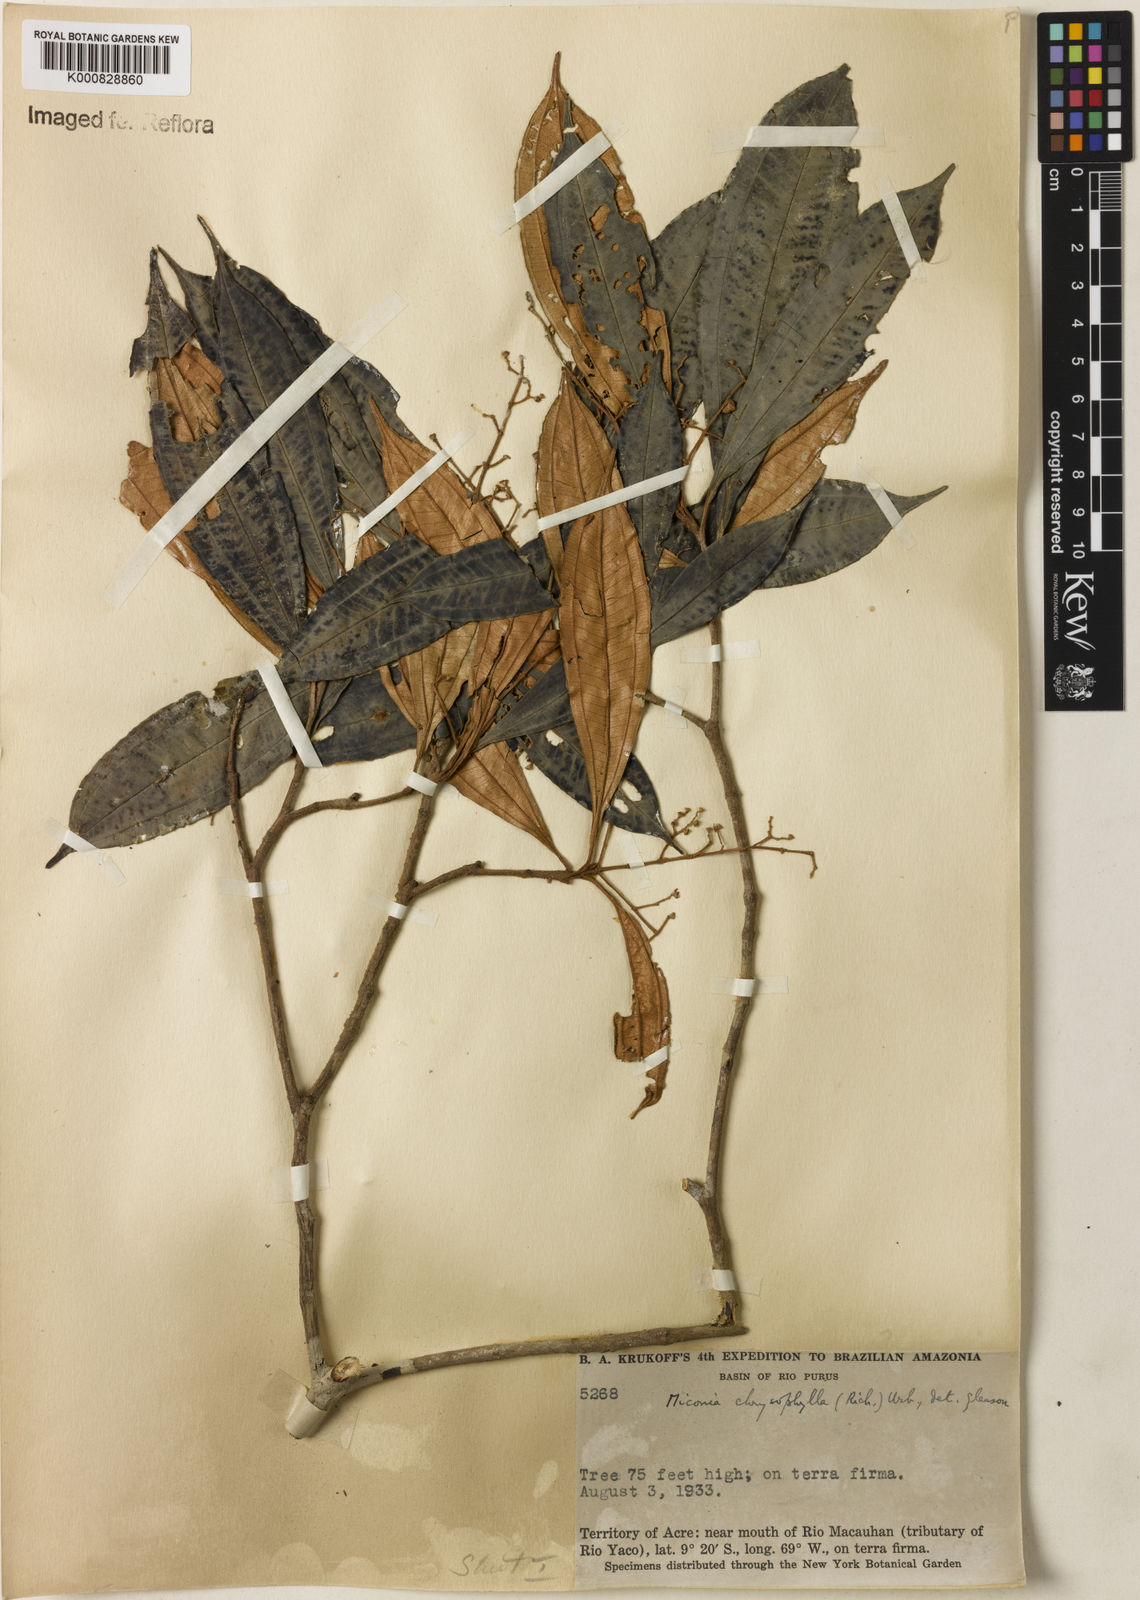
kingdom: Plantae
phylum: Tracheophyta
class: Magnoliopsida
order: Myrtales
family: Melastomataceae
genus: Miconia
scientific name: Miconia chrysophylla
